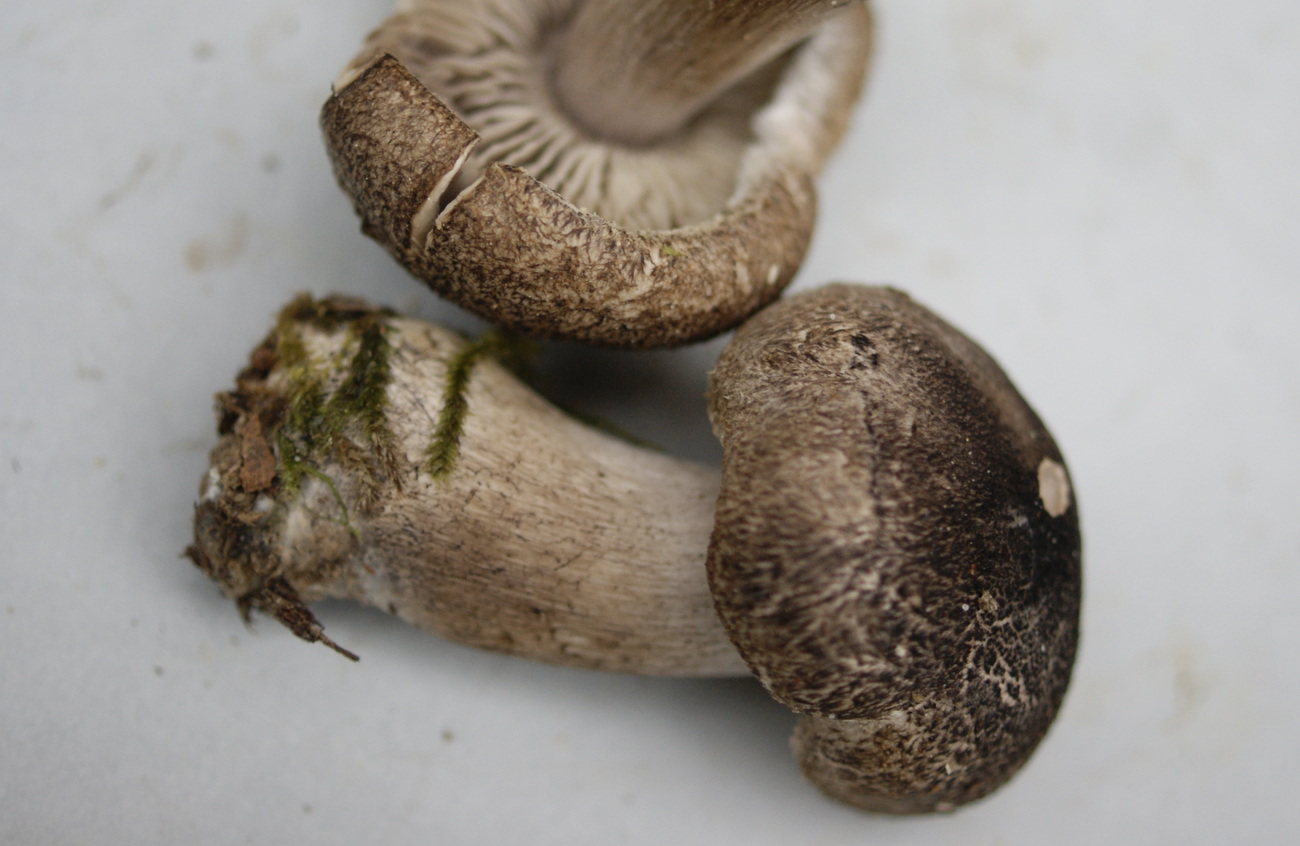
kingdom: Fungi
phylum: Basidiomycota
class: Agaricomycetes
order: Agaricales
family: Tricholomataceae
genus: Tricholoma
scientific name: Tricholoma atrosquamosum
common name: sortskællet ridderhat
